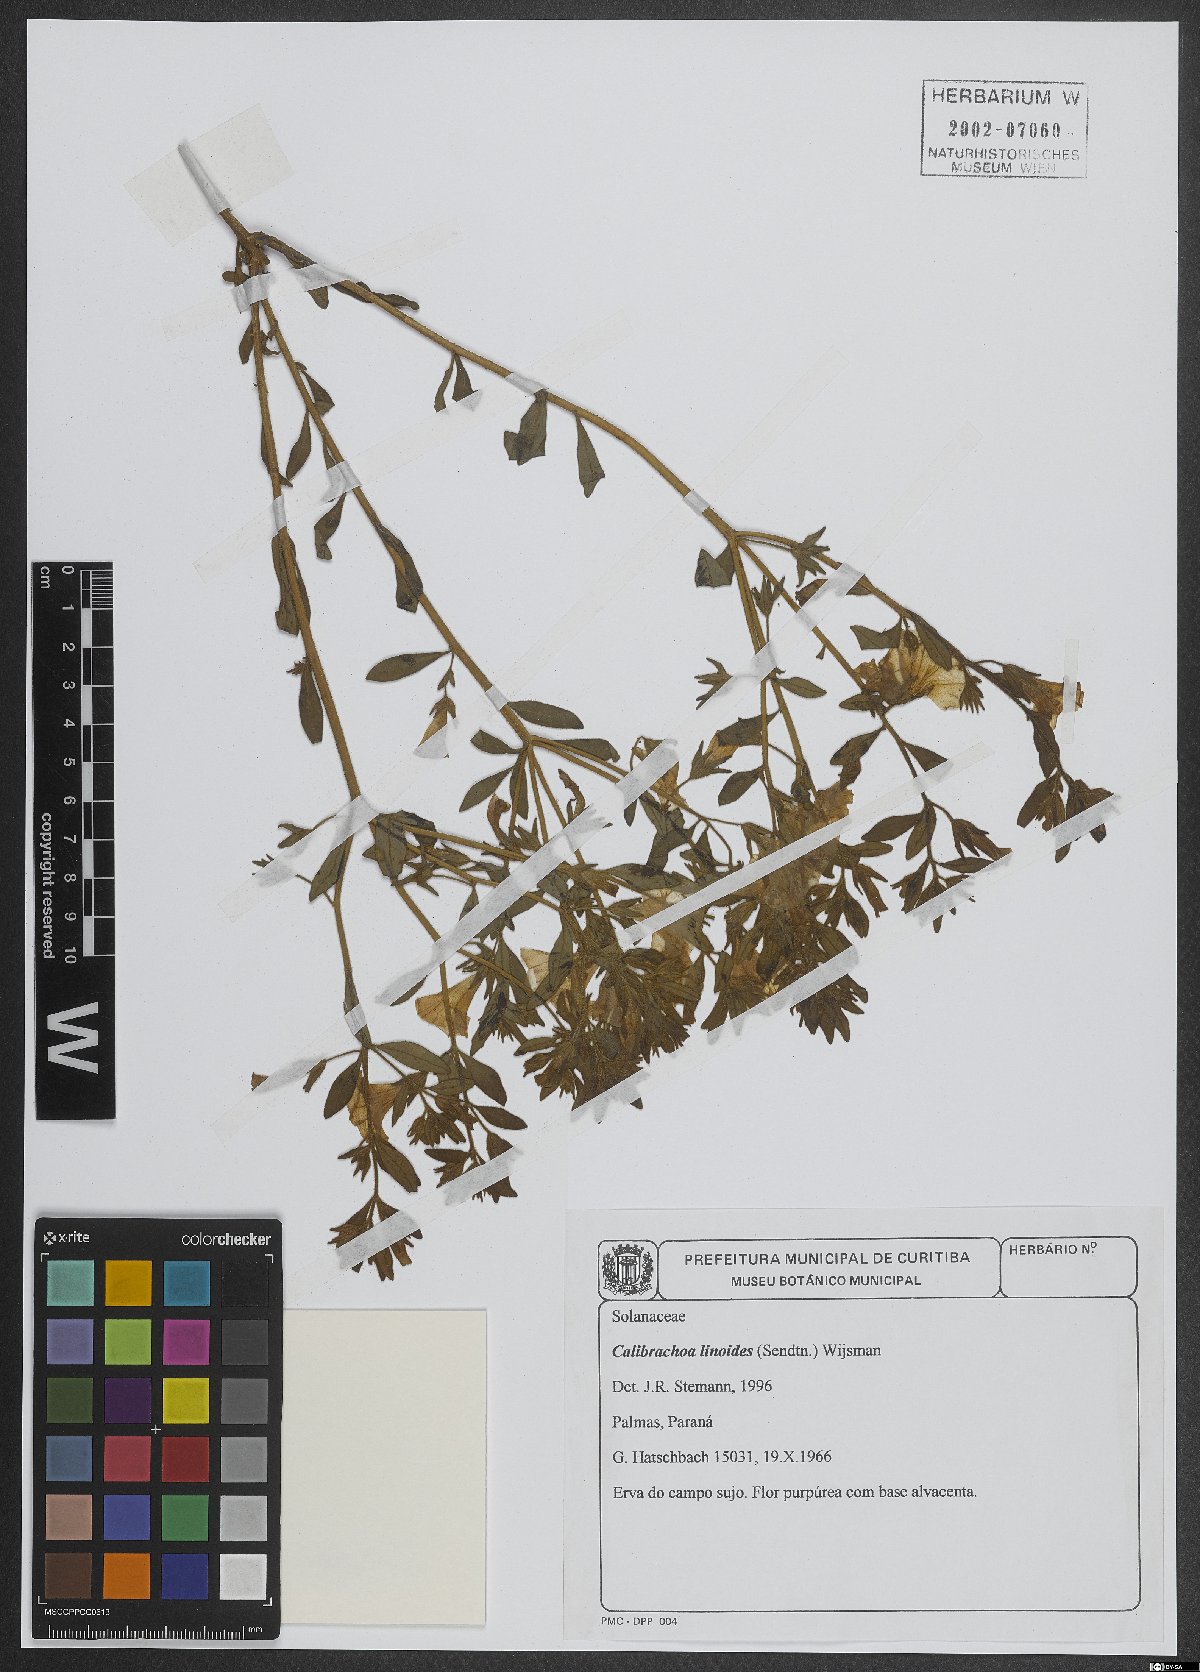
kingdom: Plantae
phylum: Tracheophyta
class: Magnoliopsida
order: Solanales
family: Solanaceae
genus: Calibrachoa
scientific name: Calibrachoa linoides
